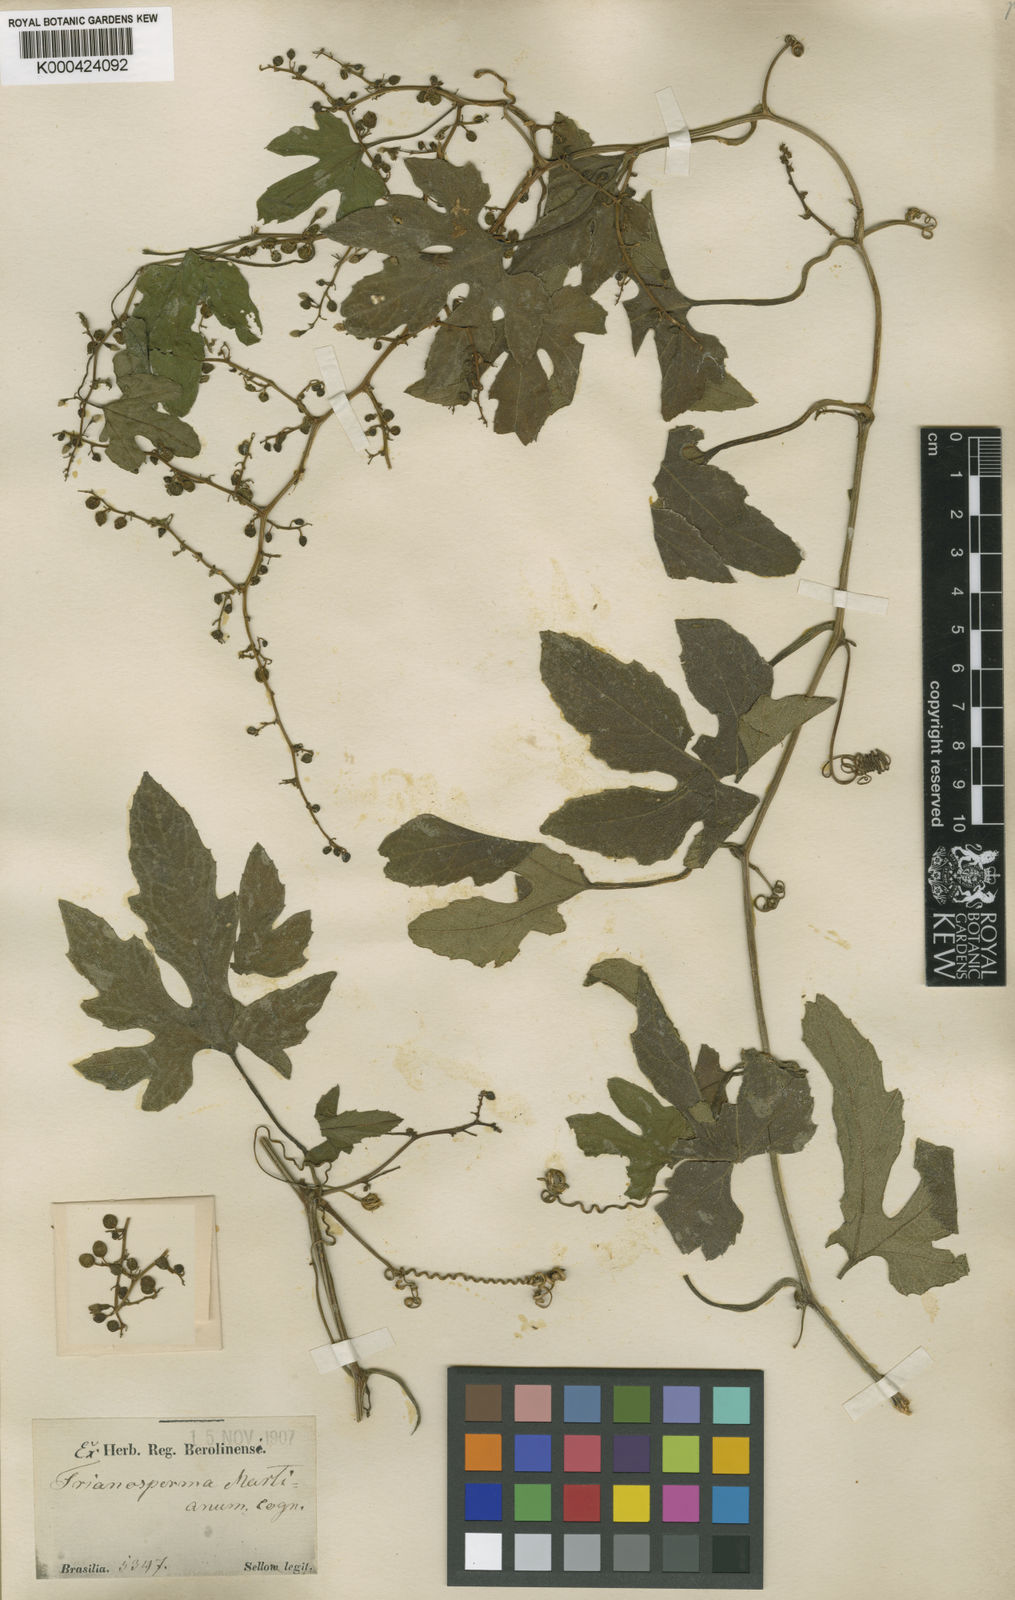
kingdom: Plantae
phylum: Tracheophyta
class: Magnoliopsida
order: Cucurbitales
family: Cucurbitaceae
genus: Cayaponia
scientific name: Cayaponia martiana
